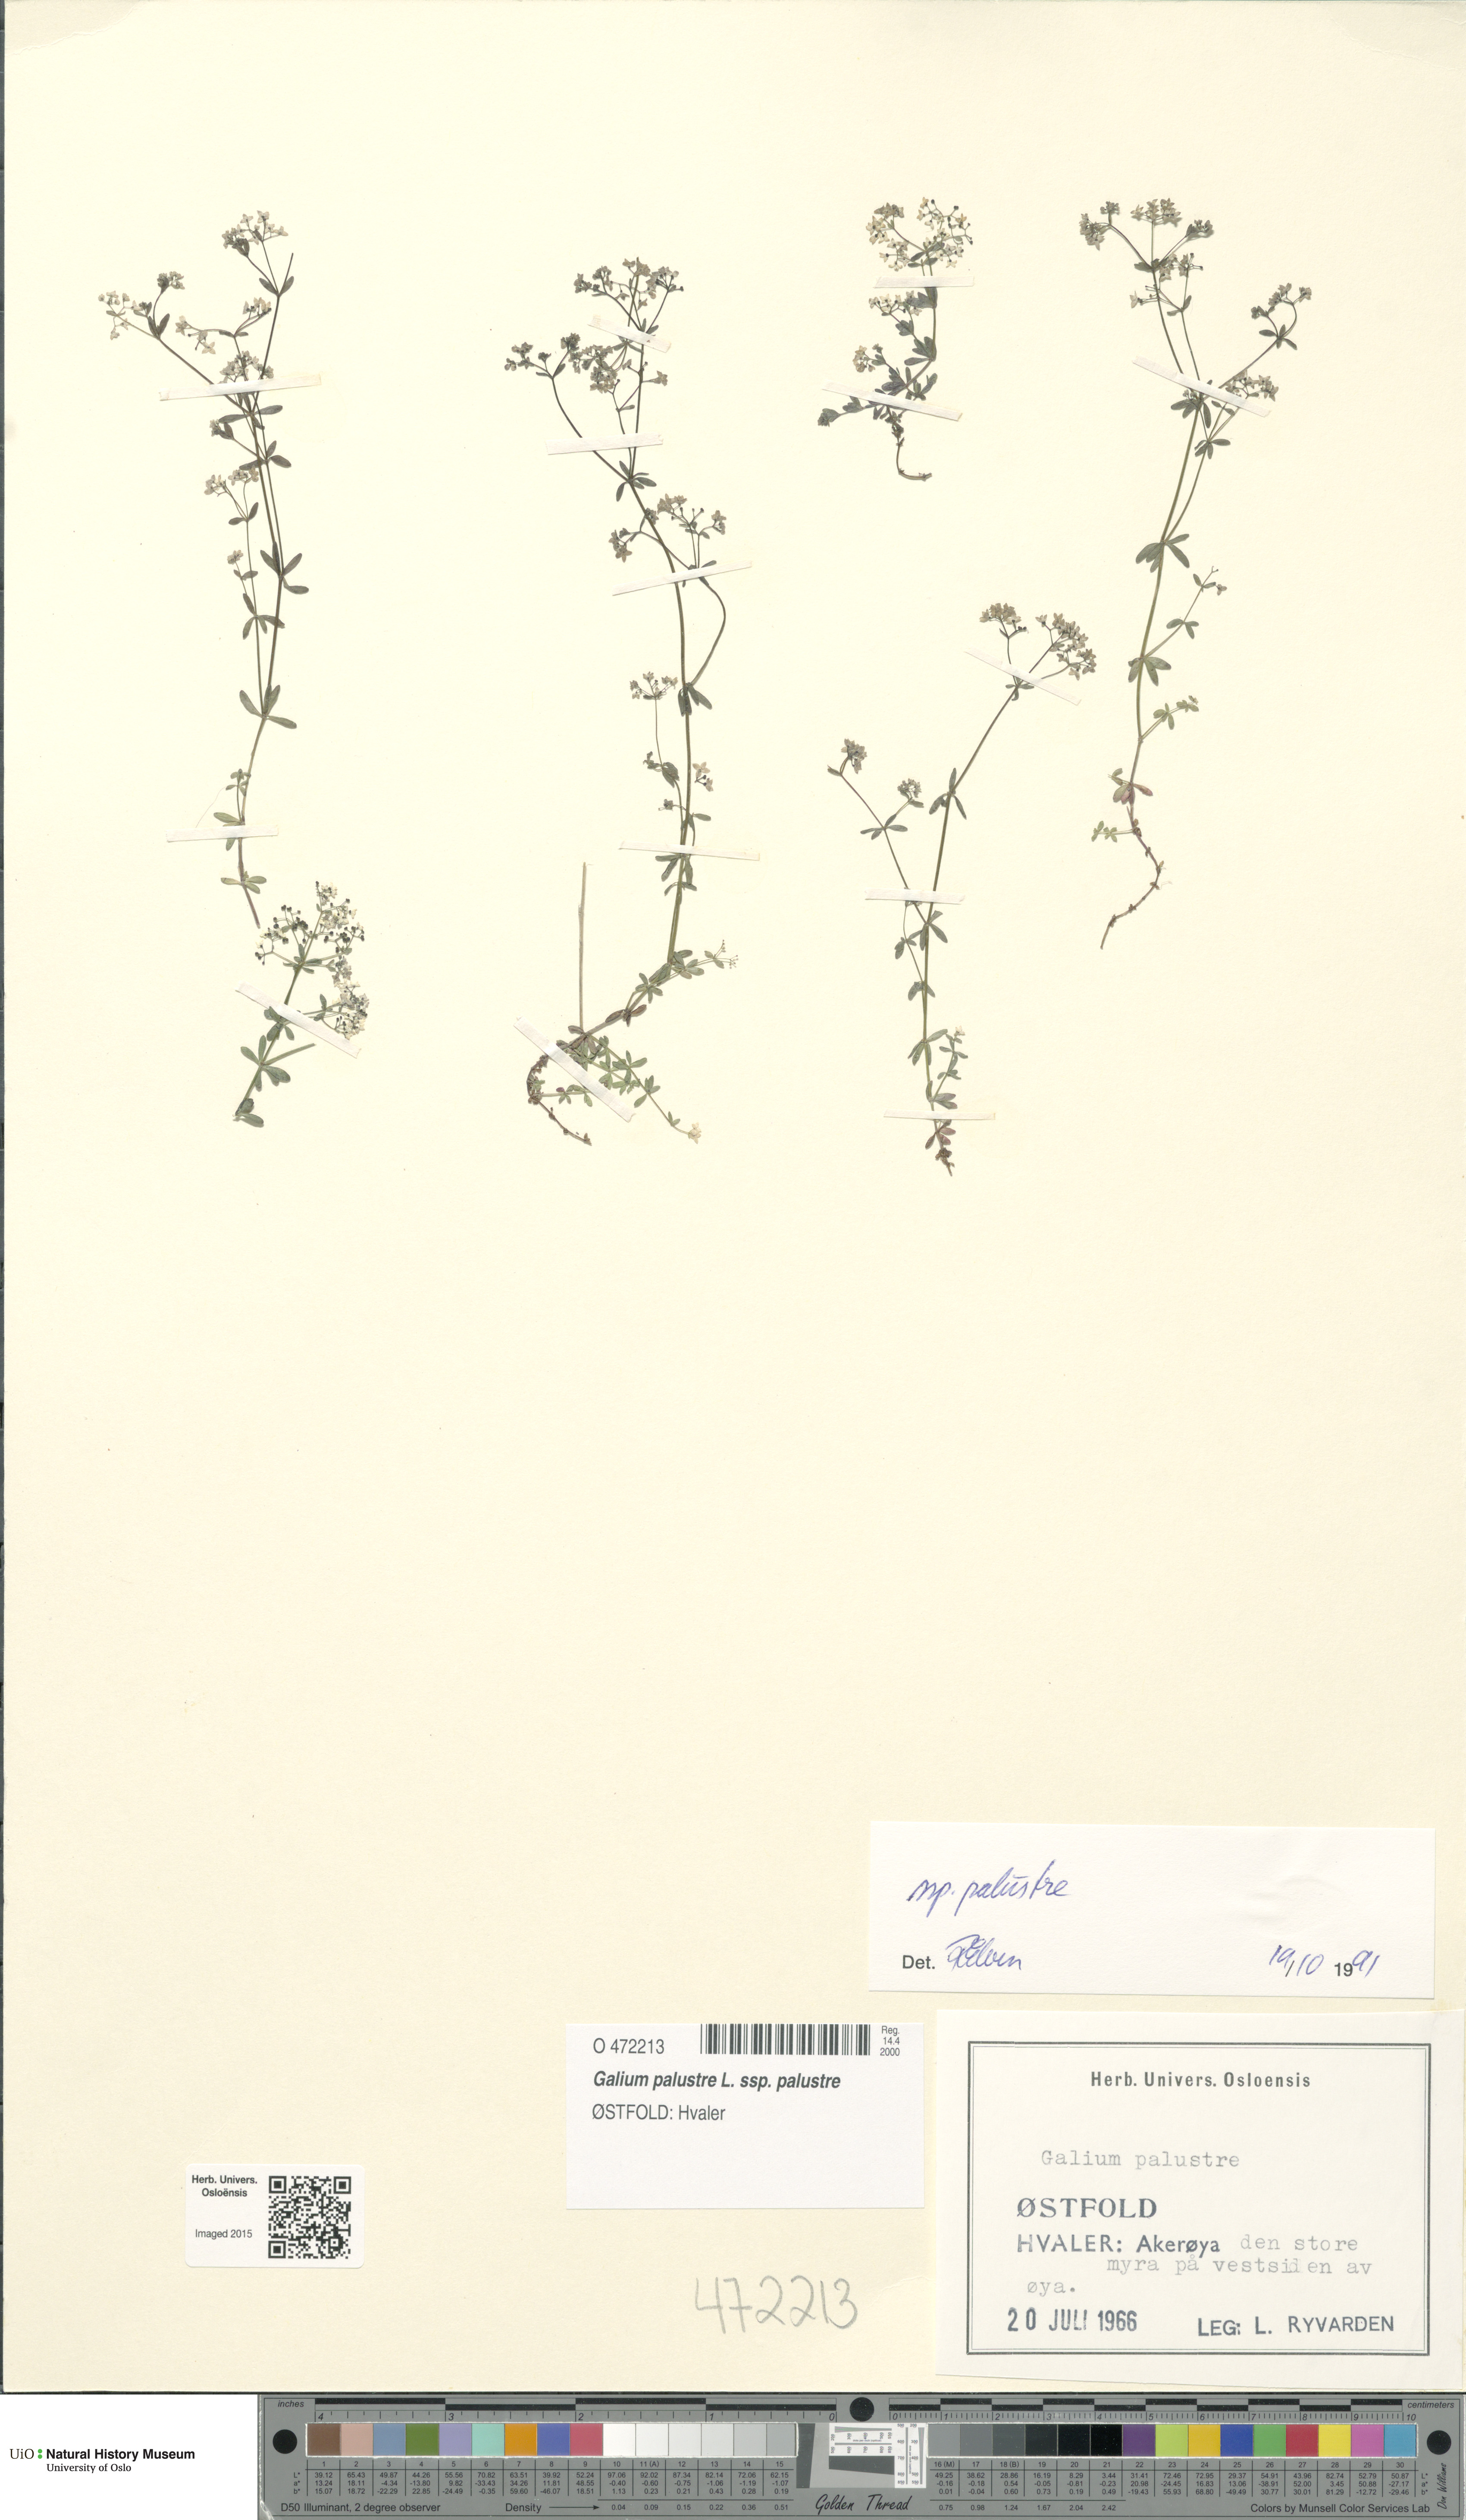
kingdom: Plantae
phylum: Tracheophyta
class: Magnoliopsida
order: Gentianales
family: Rubiaceae
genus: Galium
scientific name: Galium palustre
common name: Common marsh-bedstraw
